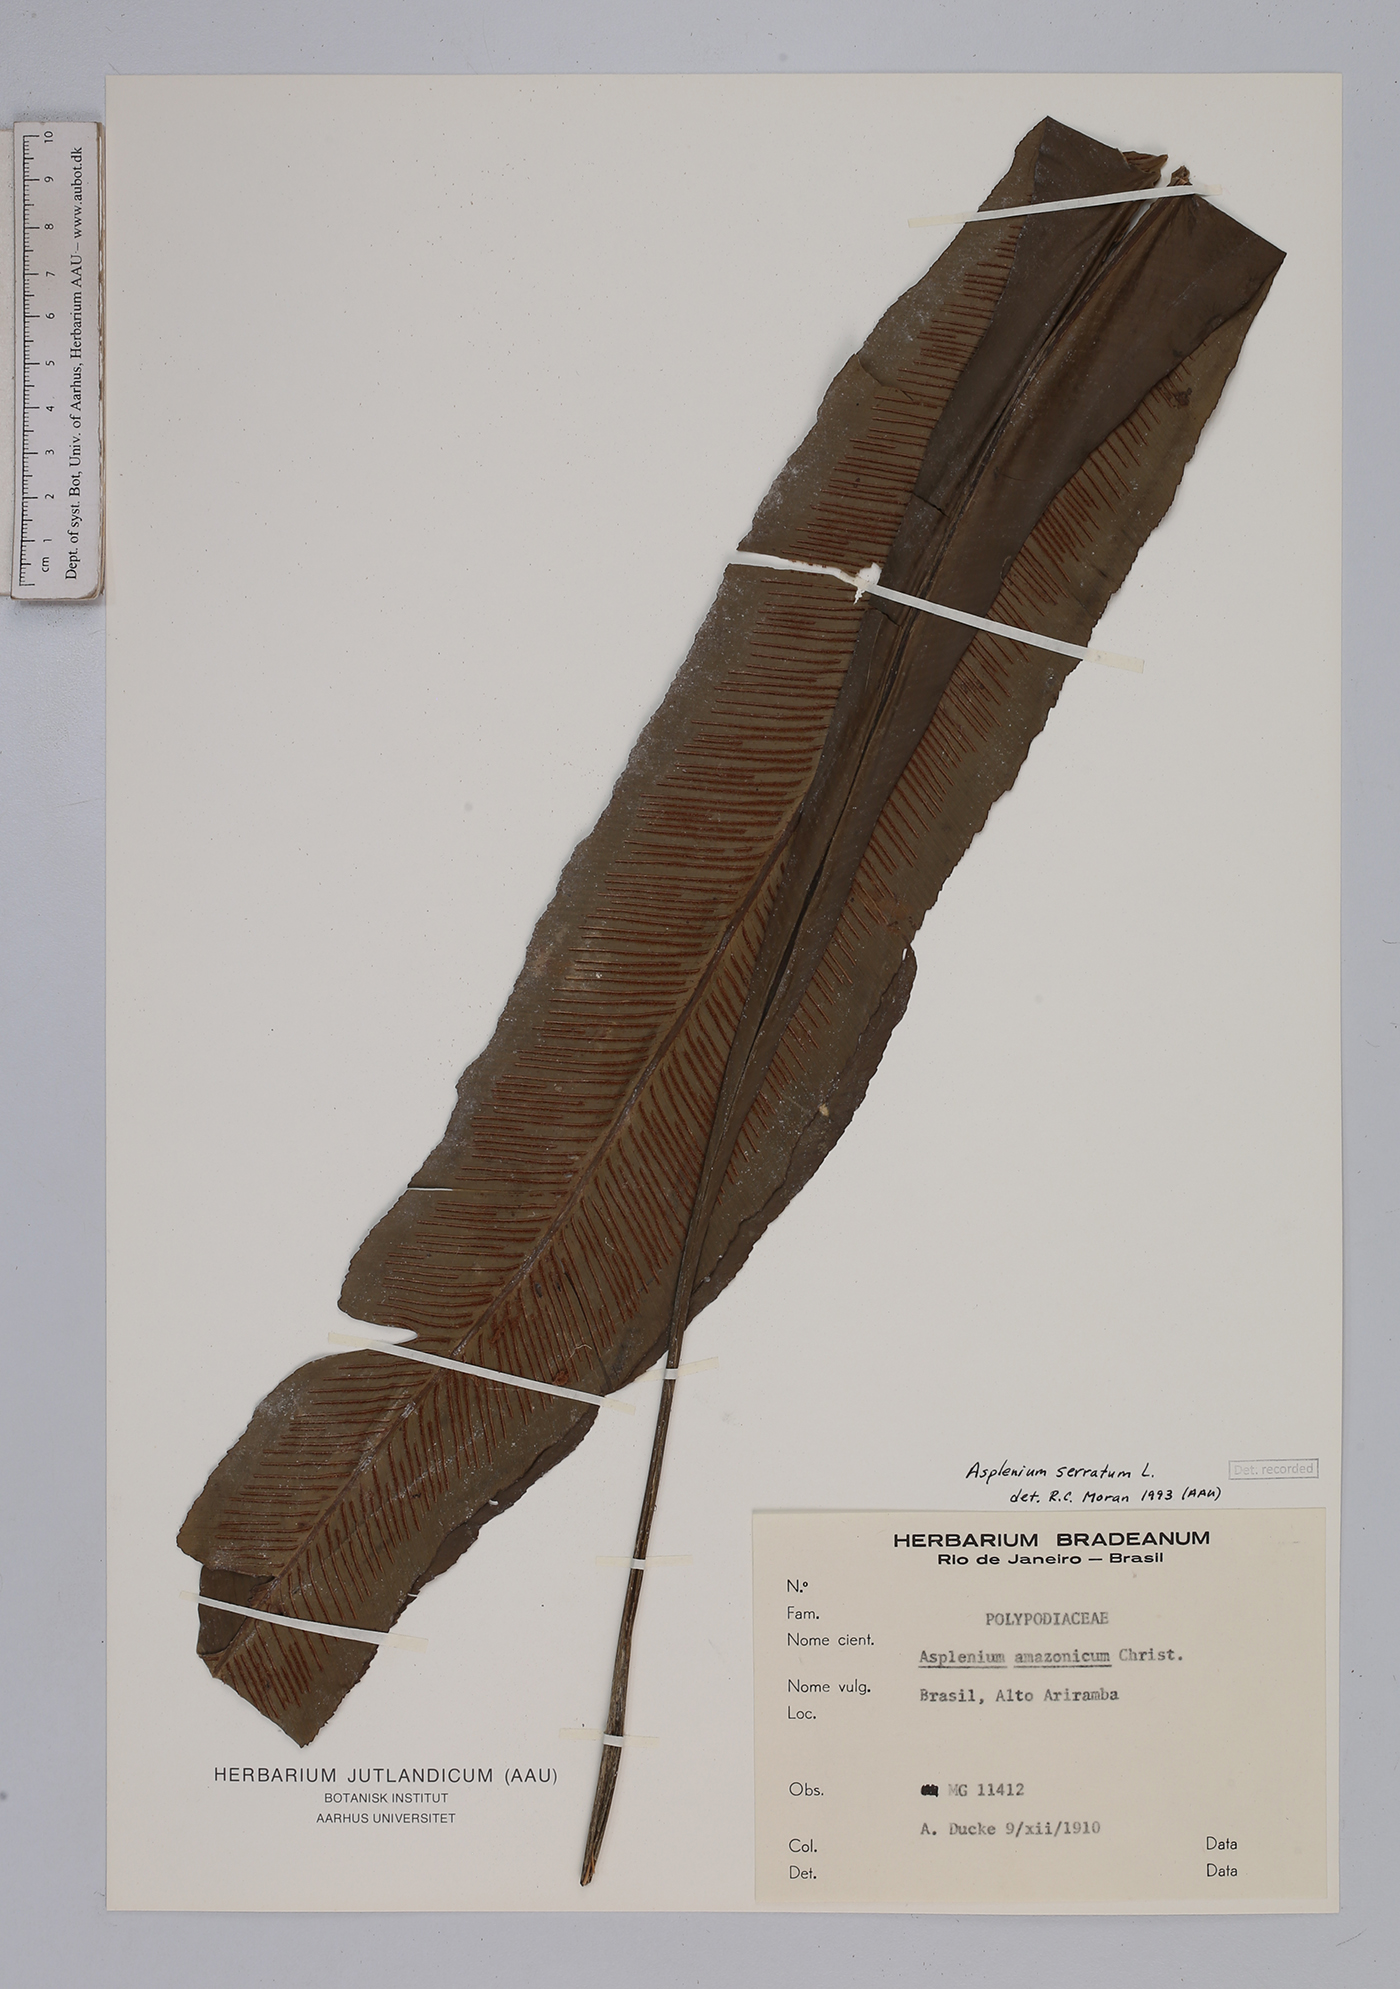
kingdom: Plantae
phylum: Tracheophyta
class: Polypodiopsida
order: Polypodiales
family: Aspleniaceae
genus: Asplenium
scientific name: Asplenium serratum
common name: Wild birdnest fern
